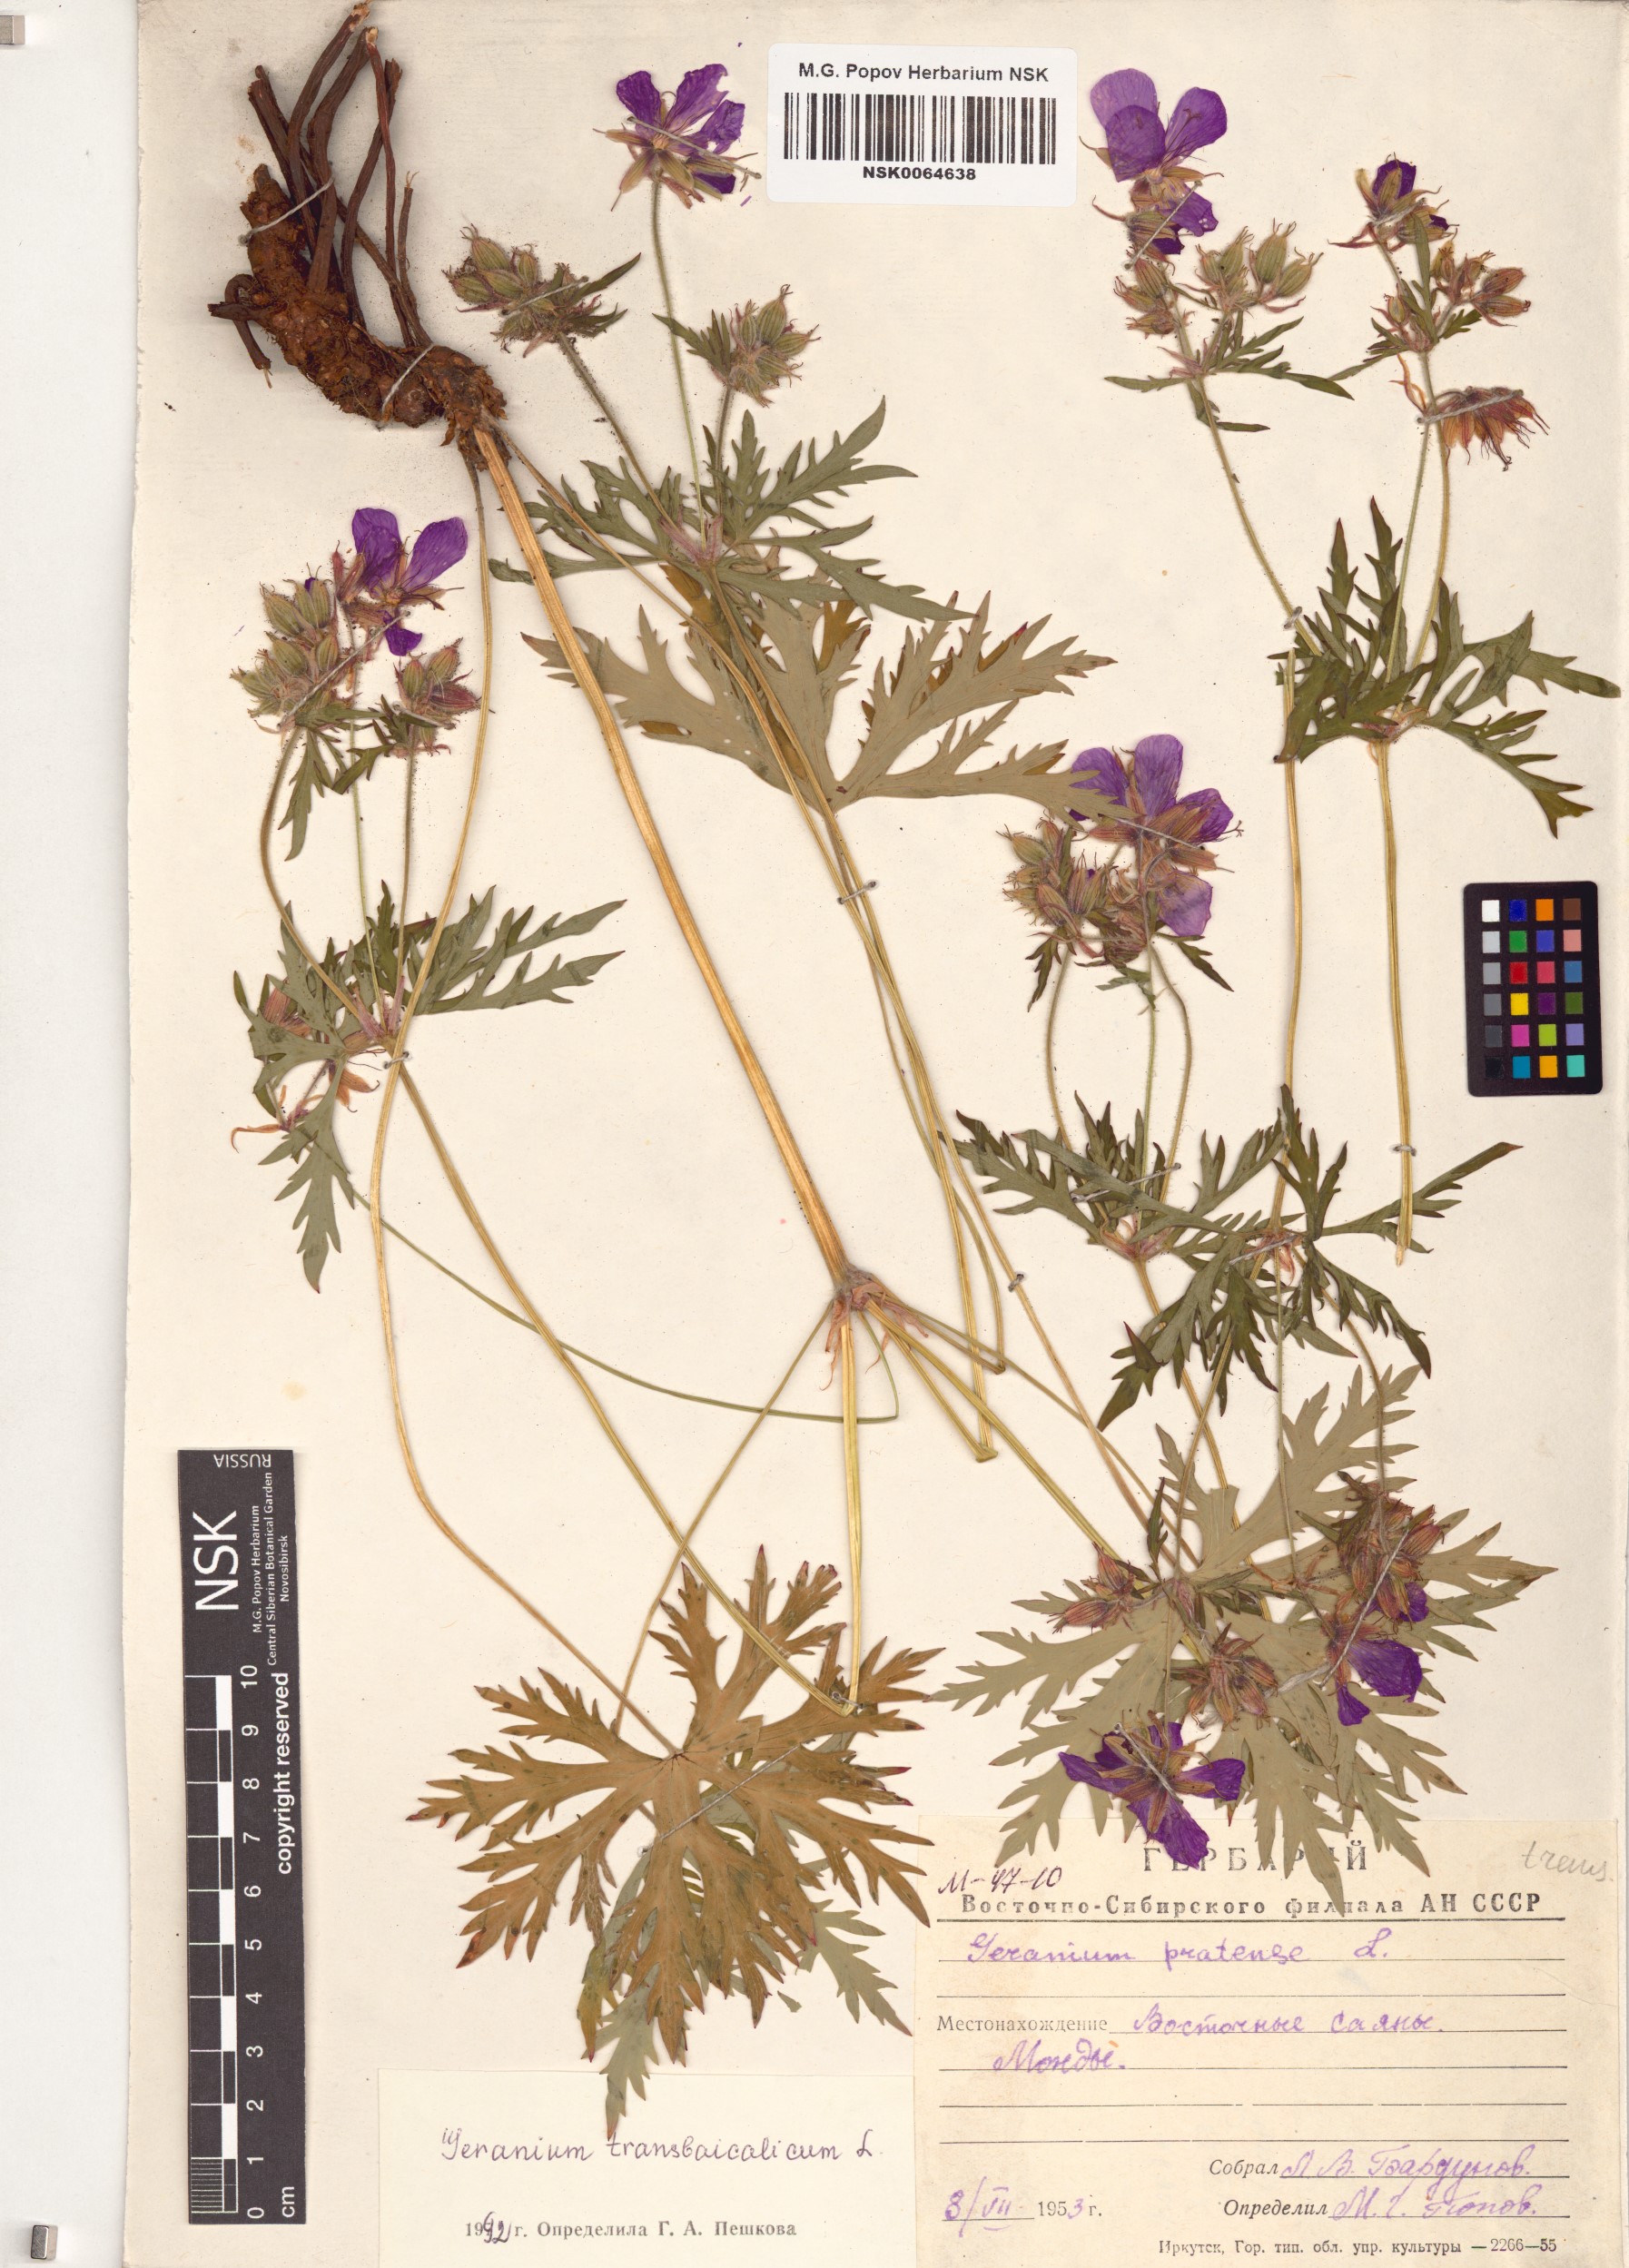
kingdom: Plantae
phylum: Tracheophyta
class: Magnoliopsida
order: Geraniales
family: Geraniaceae
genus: Geranium
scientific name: Geranium pratense
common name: Meadow crane's-bill
